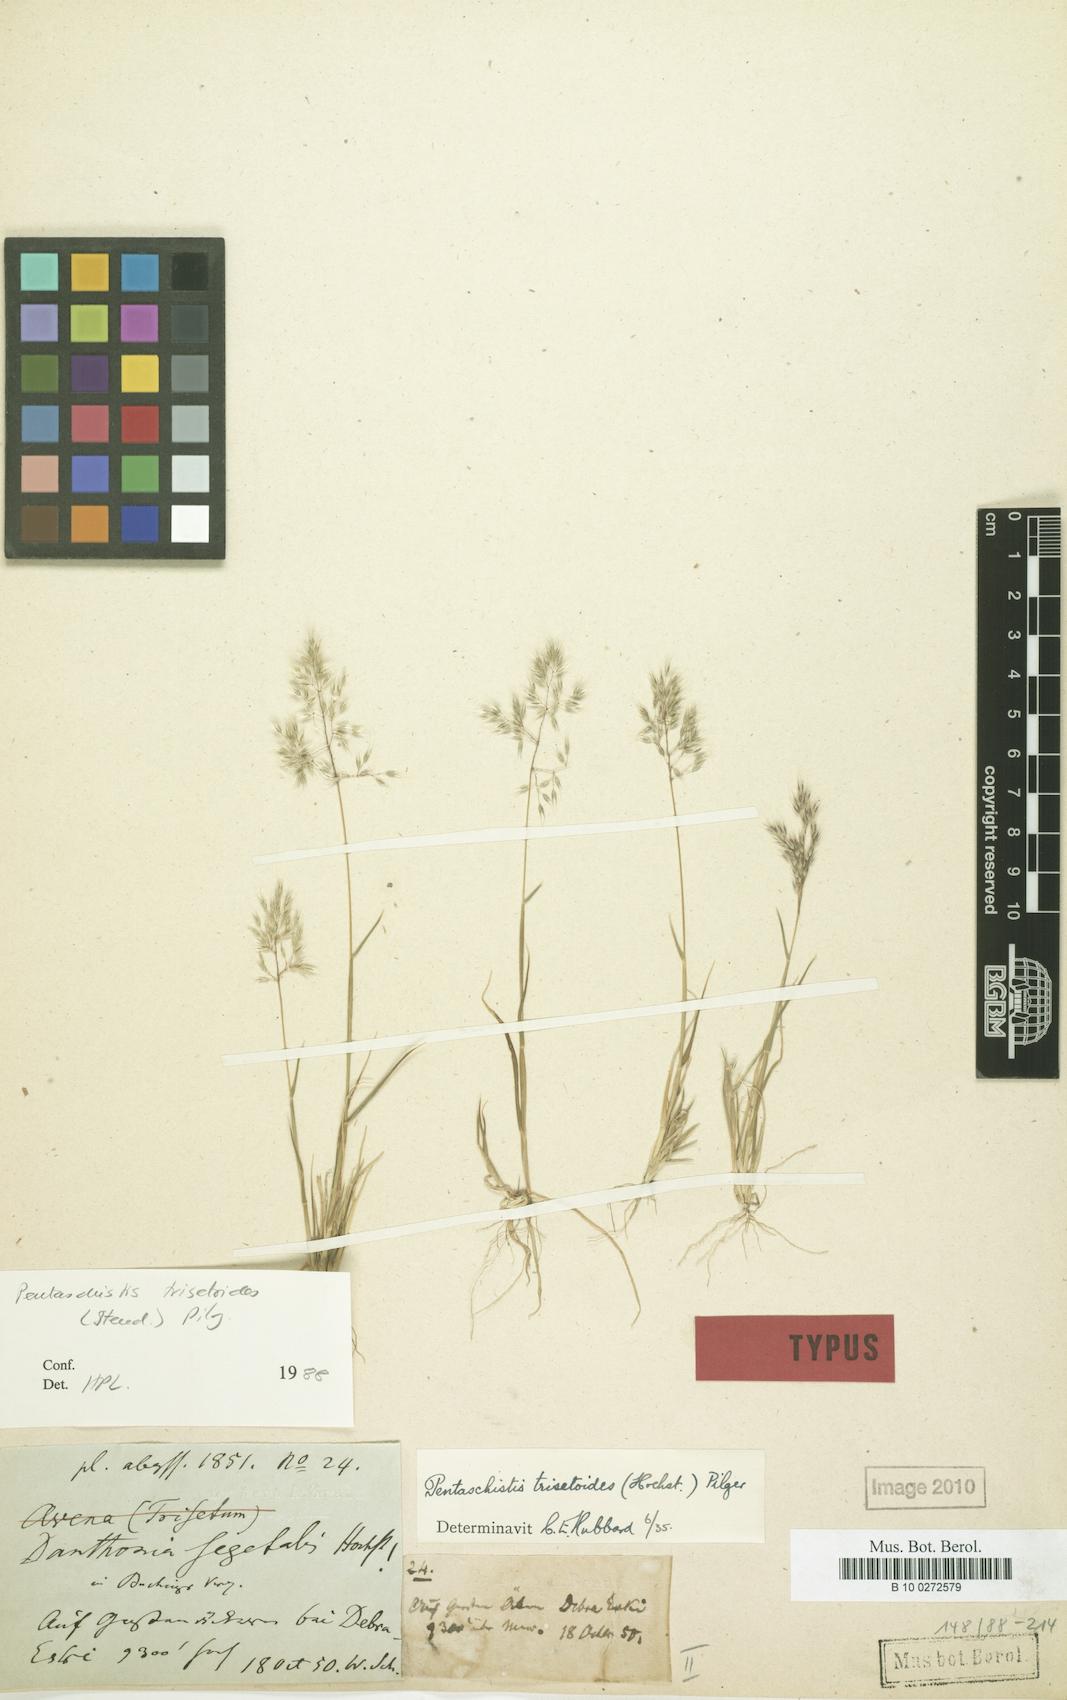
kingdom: Plantae
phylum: Tracheophyta
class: Liliopsida
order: Poales
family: Poaceae
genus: Pentameris
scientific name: Pentameris trisetoides
